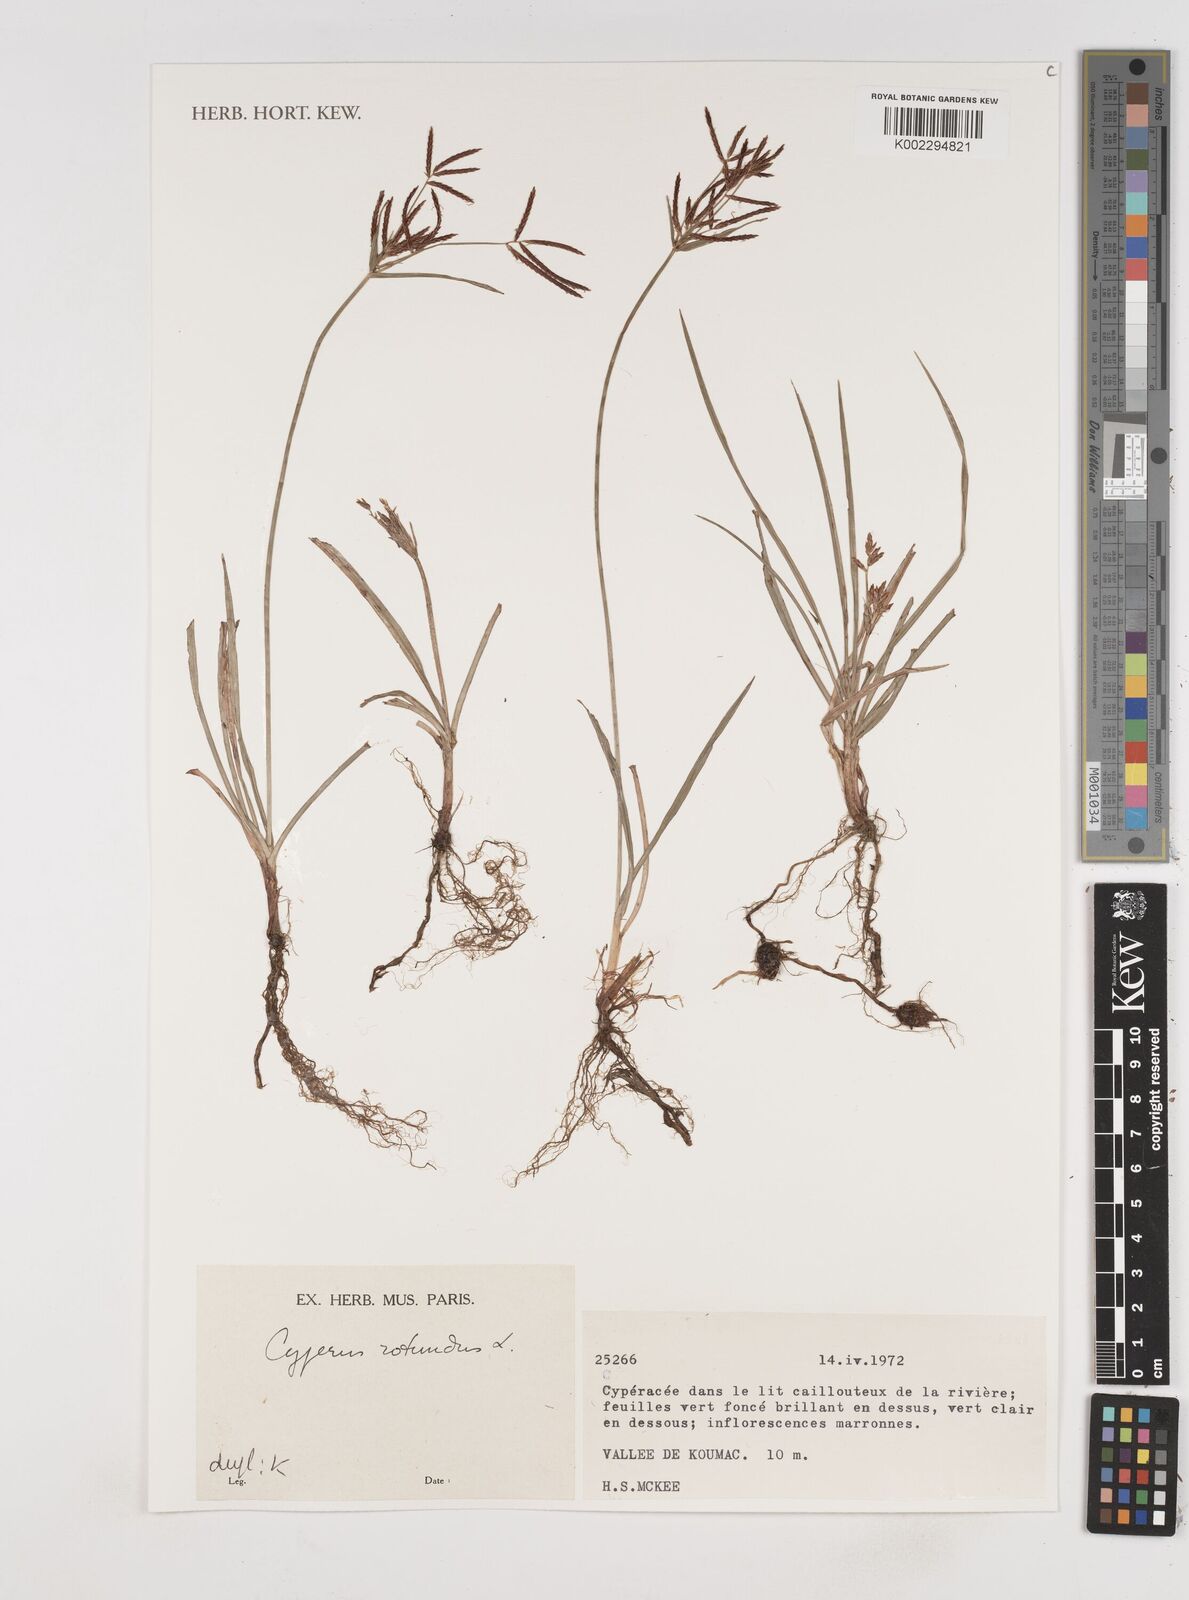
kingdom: Plantae
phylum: Tracheophyta
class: Liliopsida
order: Poales
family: Cyperaceae
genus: Cyperus
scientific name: Cyperus rotundus
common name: Nutgrass
